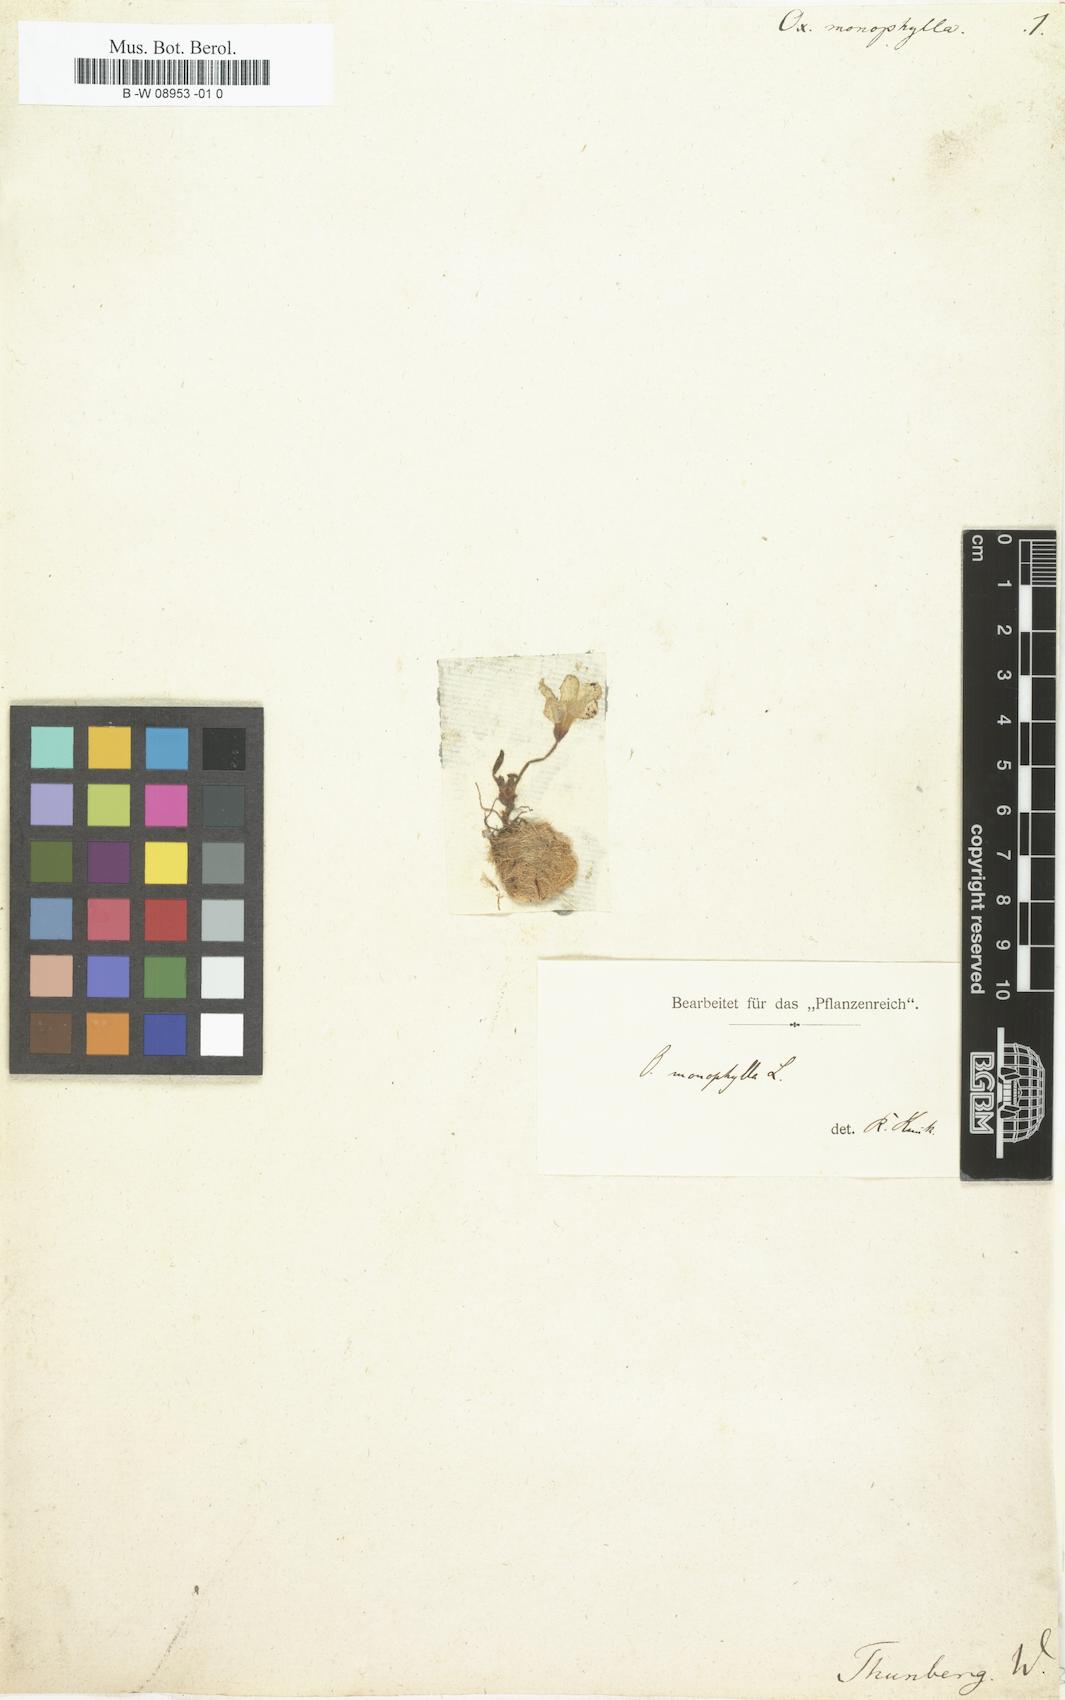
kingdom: Plantae
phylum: Tracheophyta
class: Magnoliopsida
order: Oxalidales
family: Oxalidaceae
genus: Oxalis
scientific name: Oxalis monophylla
